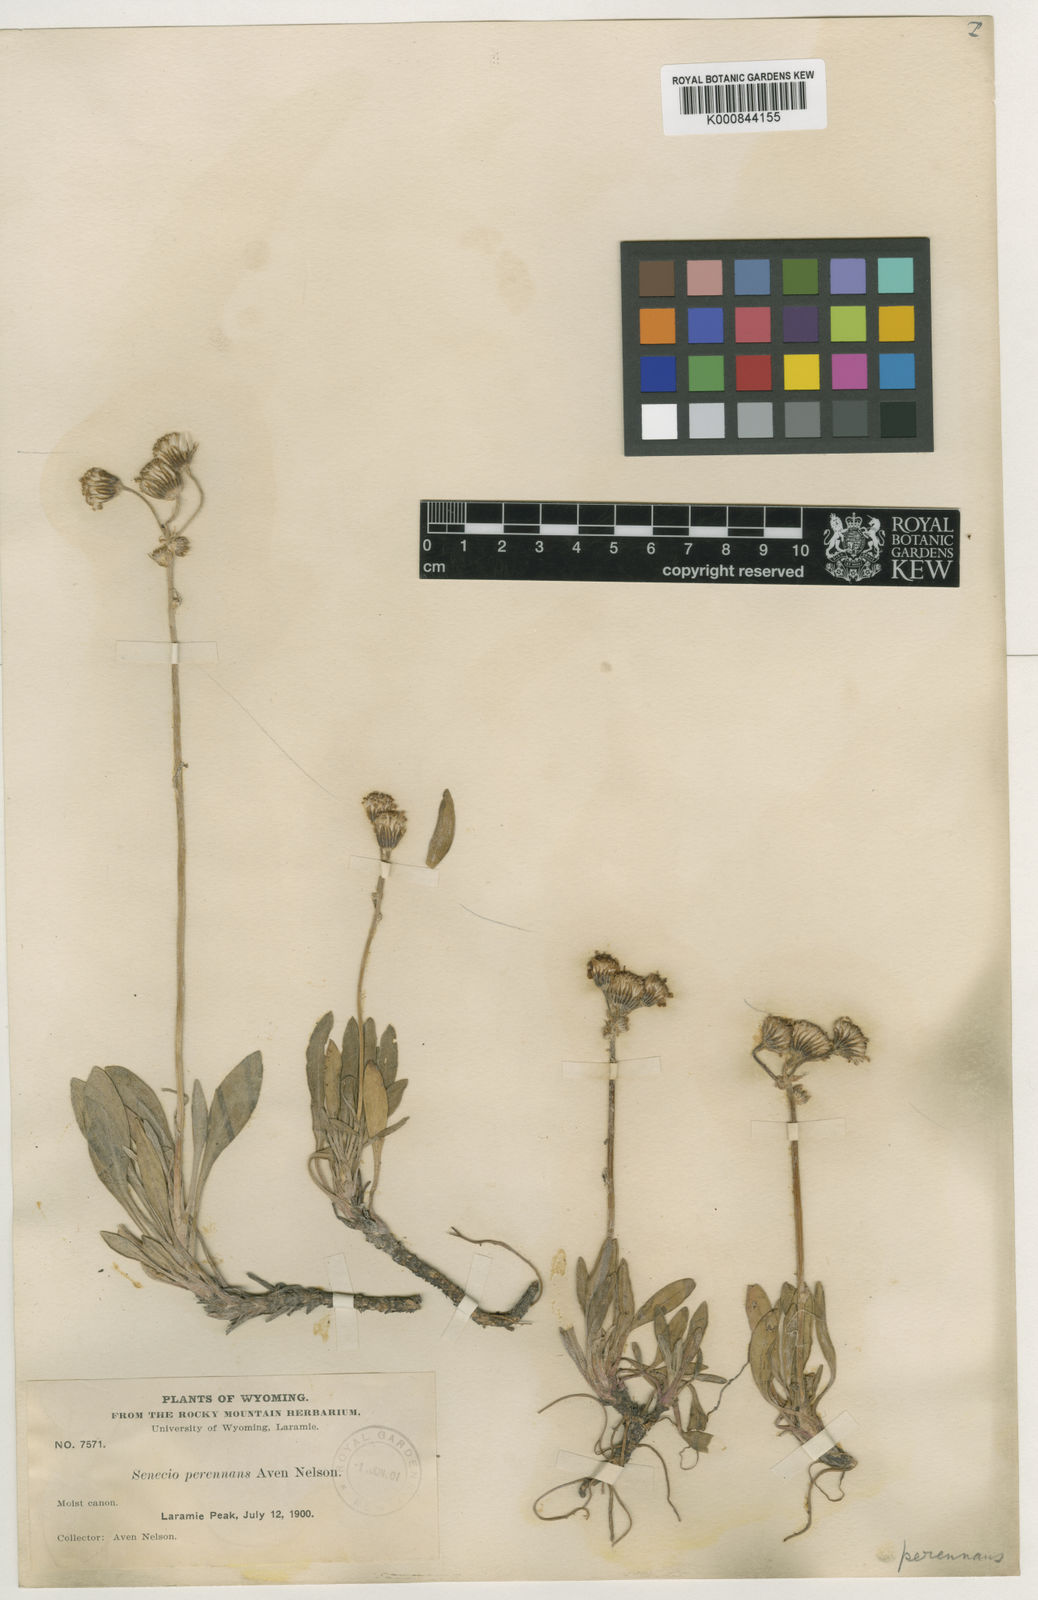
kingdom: Plantae
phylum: Tracheophyta
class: Magnoliopsida
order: Asterales
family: Asteraceae
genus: Packera
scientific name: Packera
